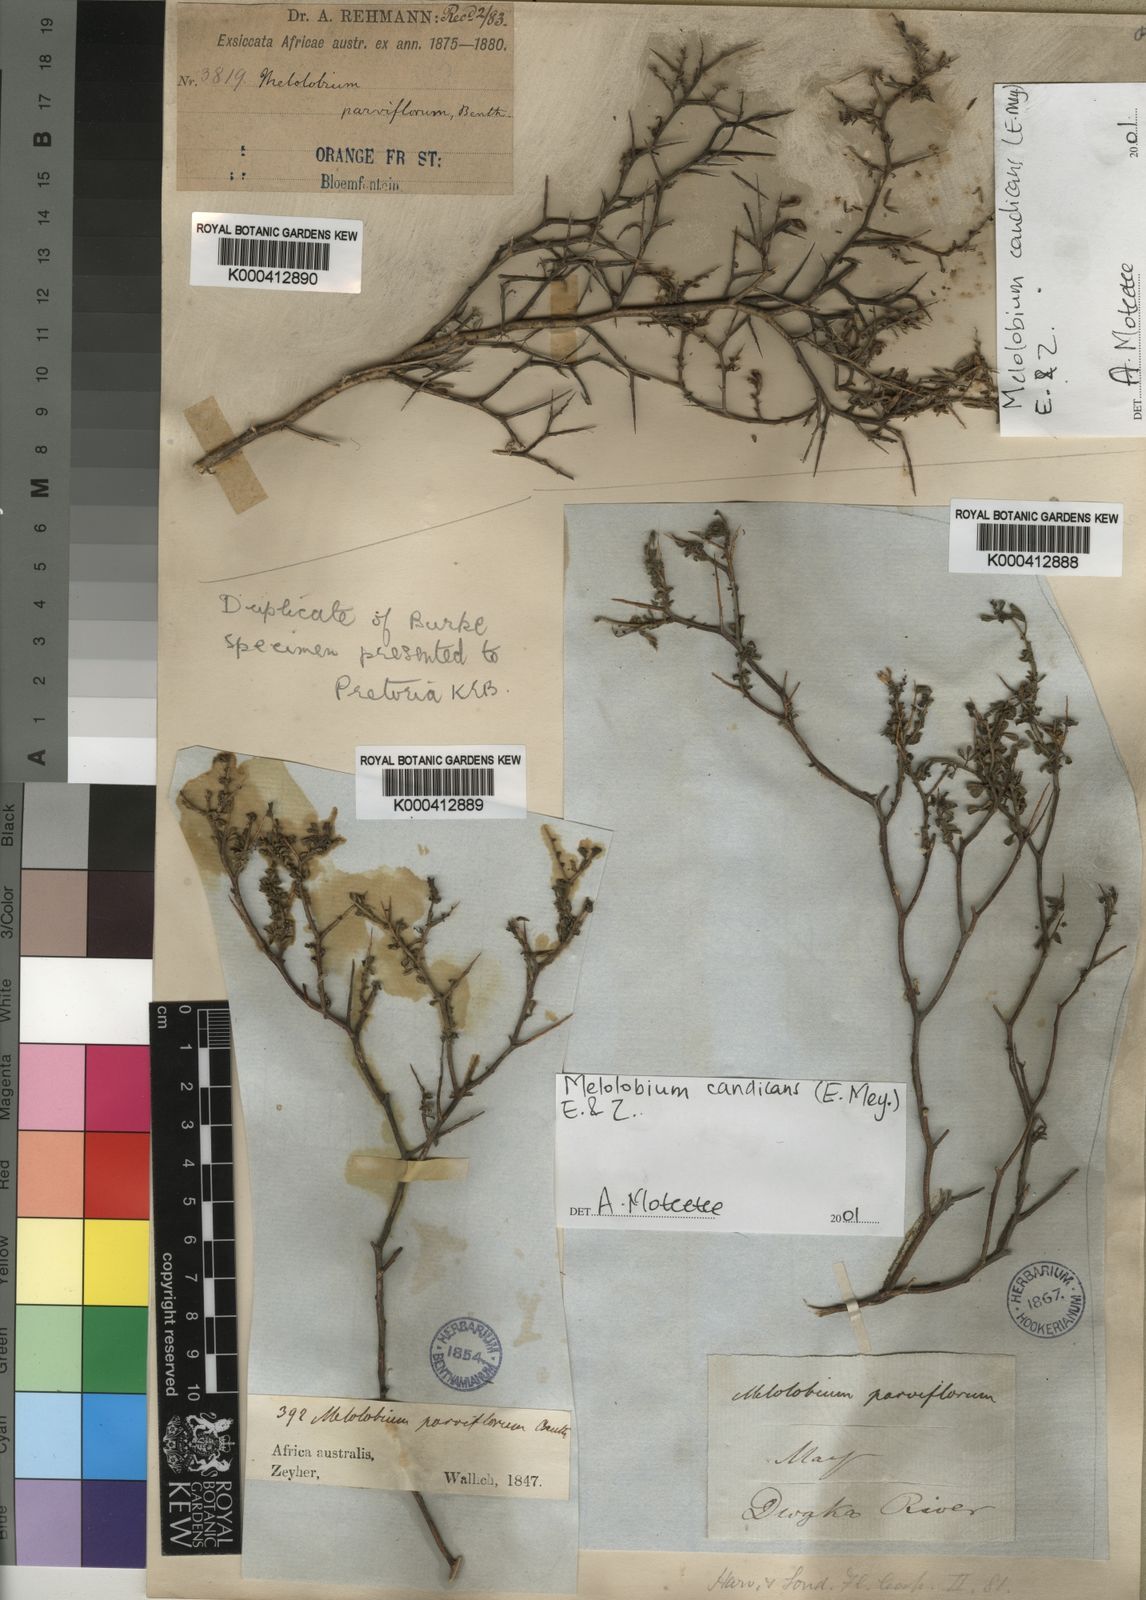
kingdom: Plantae
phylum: Tracheophyta
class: Magnoliopsida
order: Fabales
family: Fabaceae
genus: Melolobium
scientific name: Melolobium candicans
